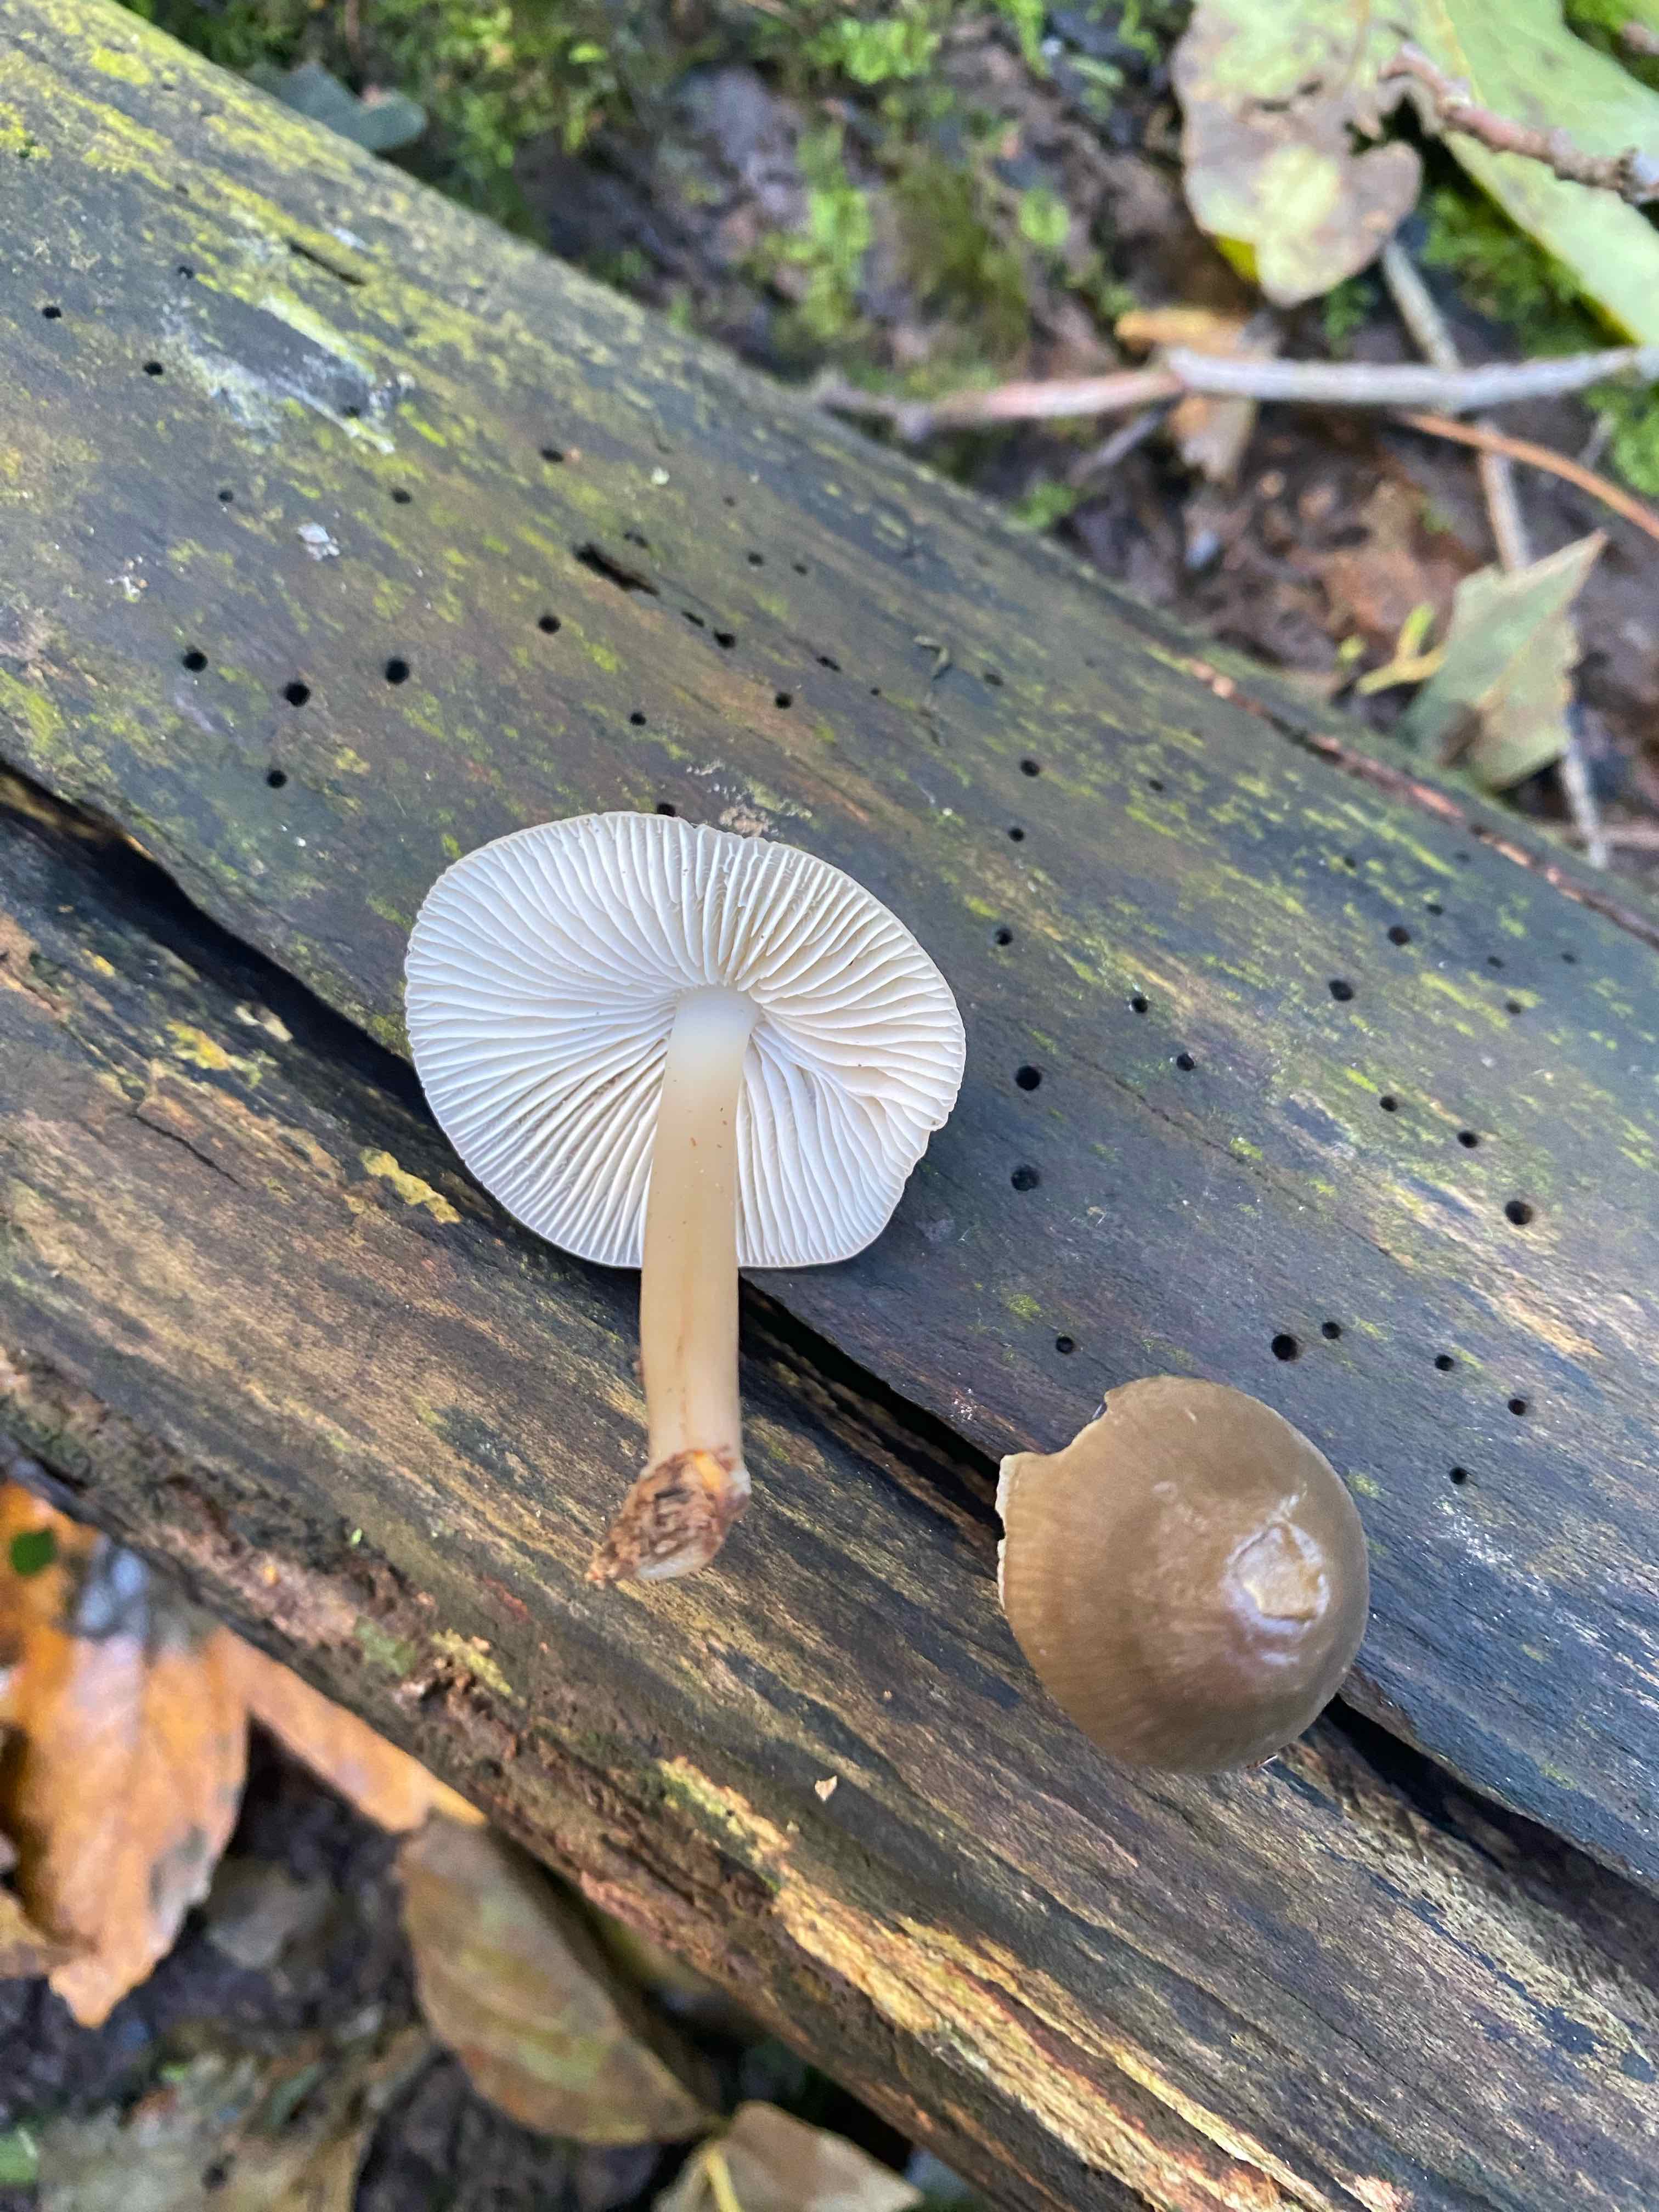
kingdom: Fungi
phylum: Basidiomycota
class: Agaricomycetes
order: Agaricales
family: Mycenaceae
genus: Mycena
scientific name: Mycena galericulata
